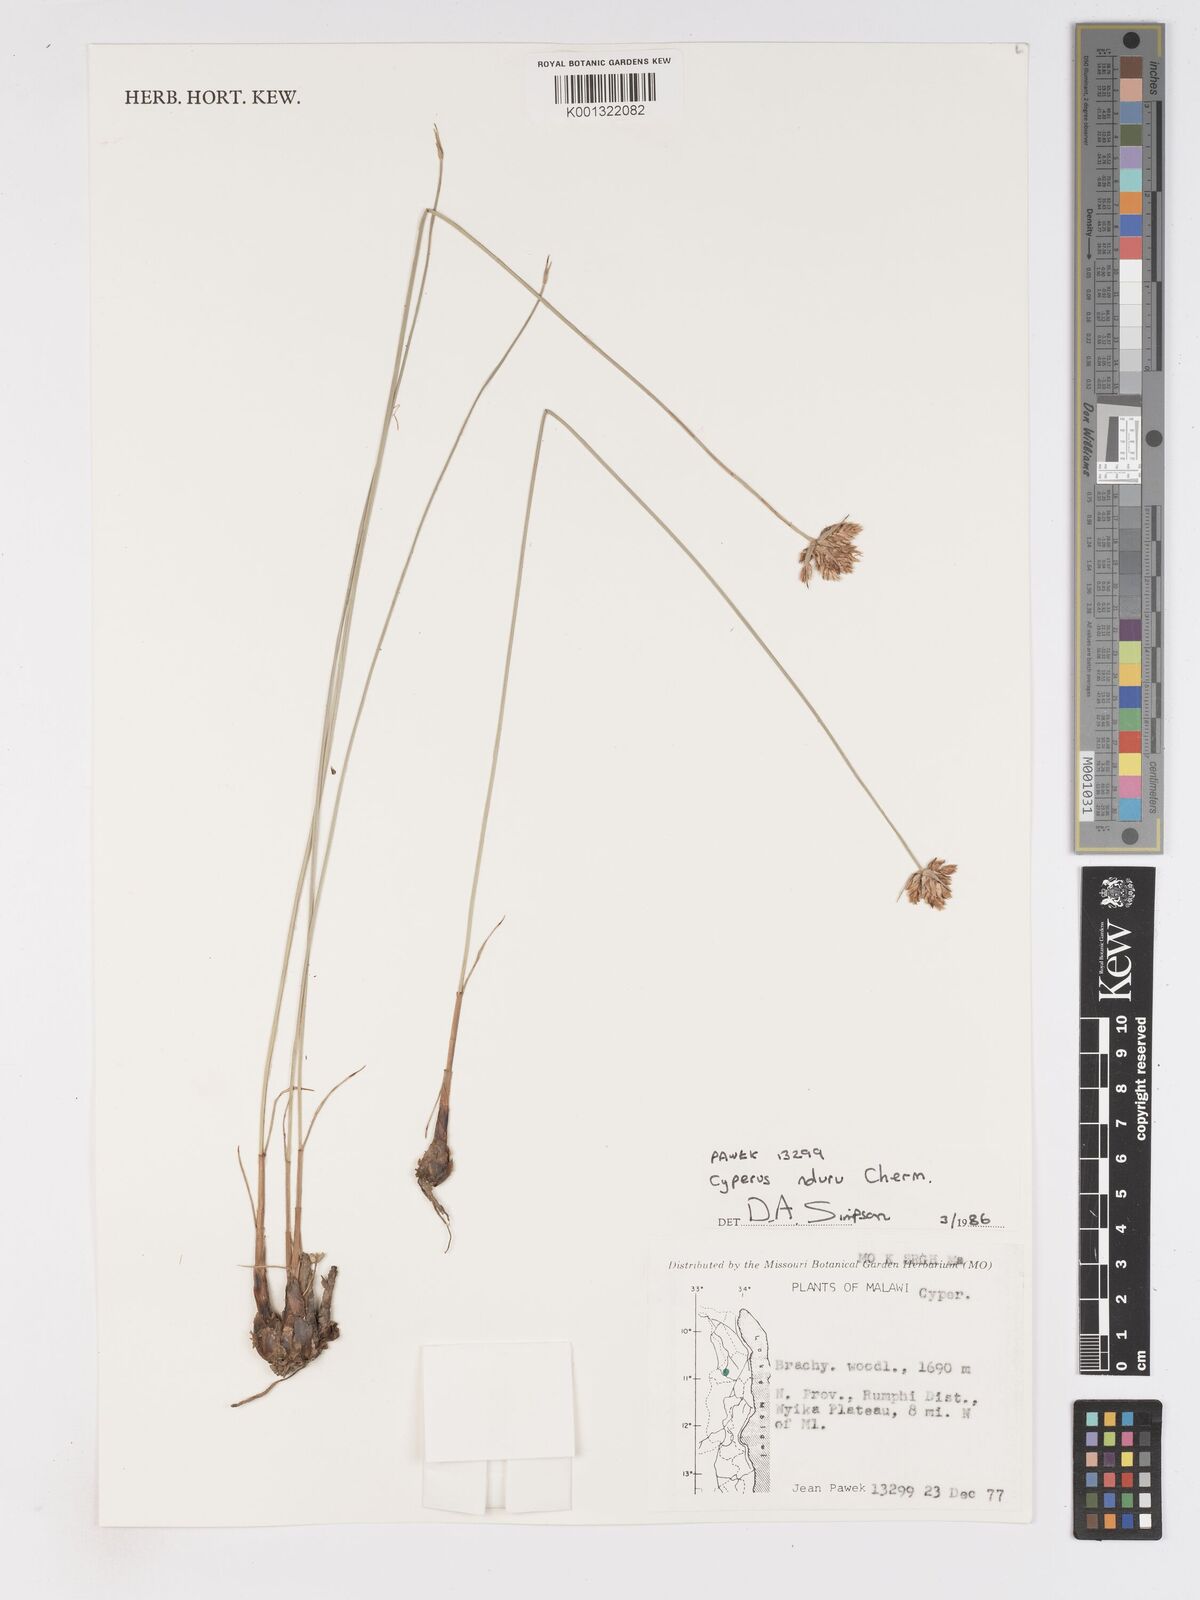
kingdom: Plantae
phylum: Tracheophyta
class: Liliopsida
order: Poales
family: Cyperaceae
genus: Cyperus
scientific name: Cyperus nduru
